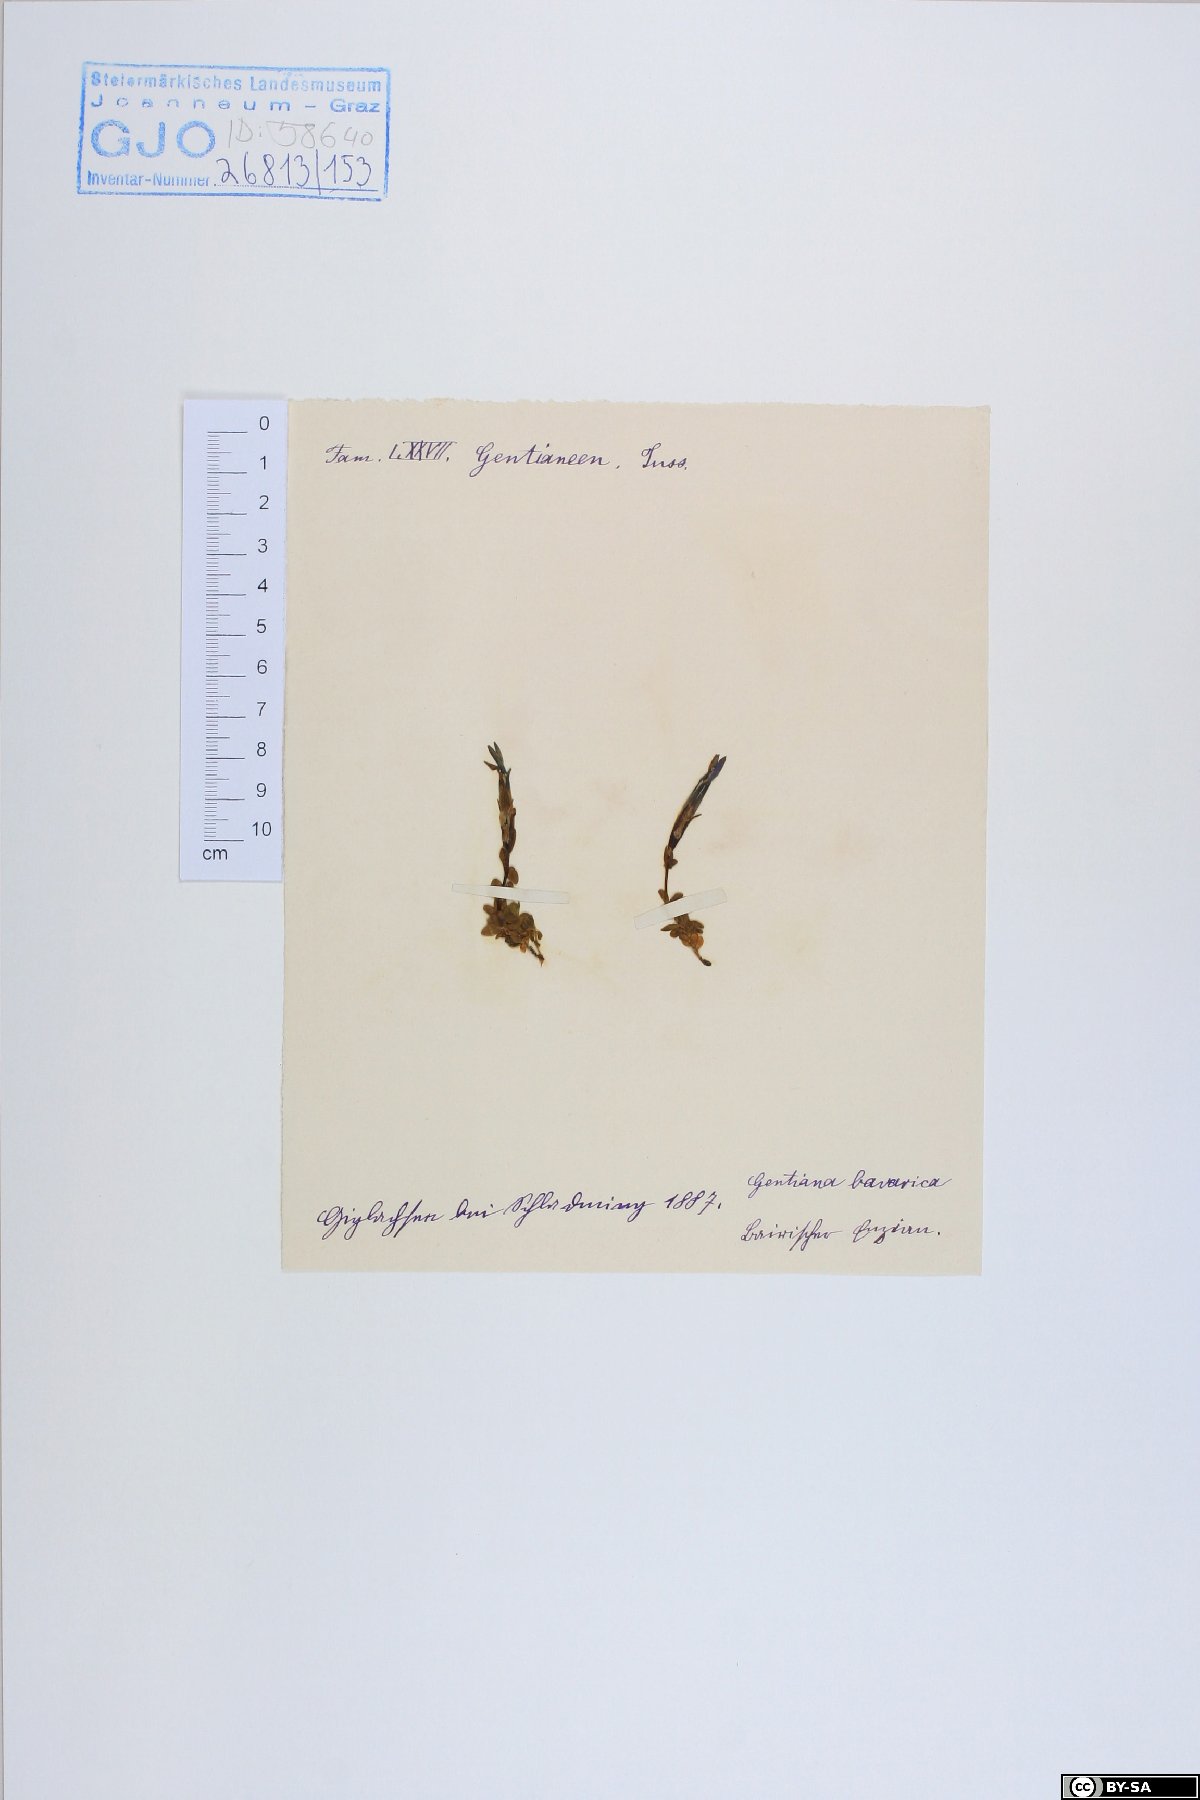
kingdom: Plantae
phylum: Tracheophyta
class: Magnoliopsida
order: Gentianales
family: Gentianaceae
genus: Gentiana
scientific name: Gentiana bavarica
